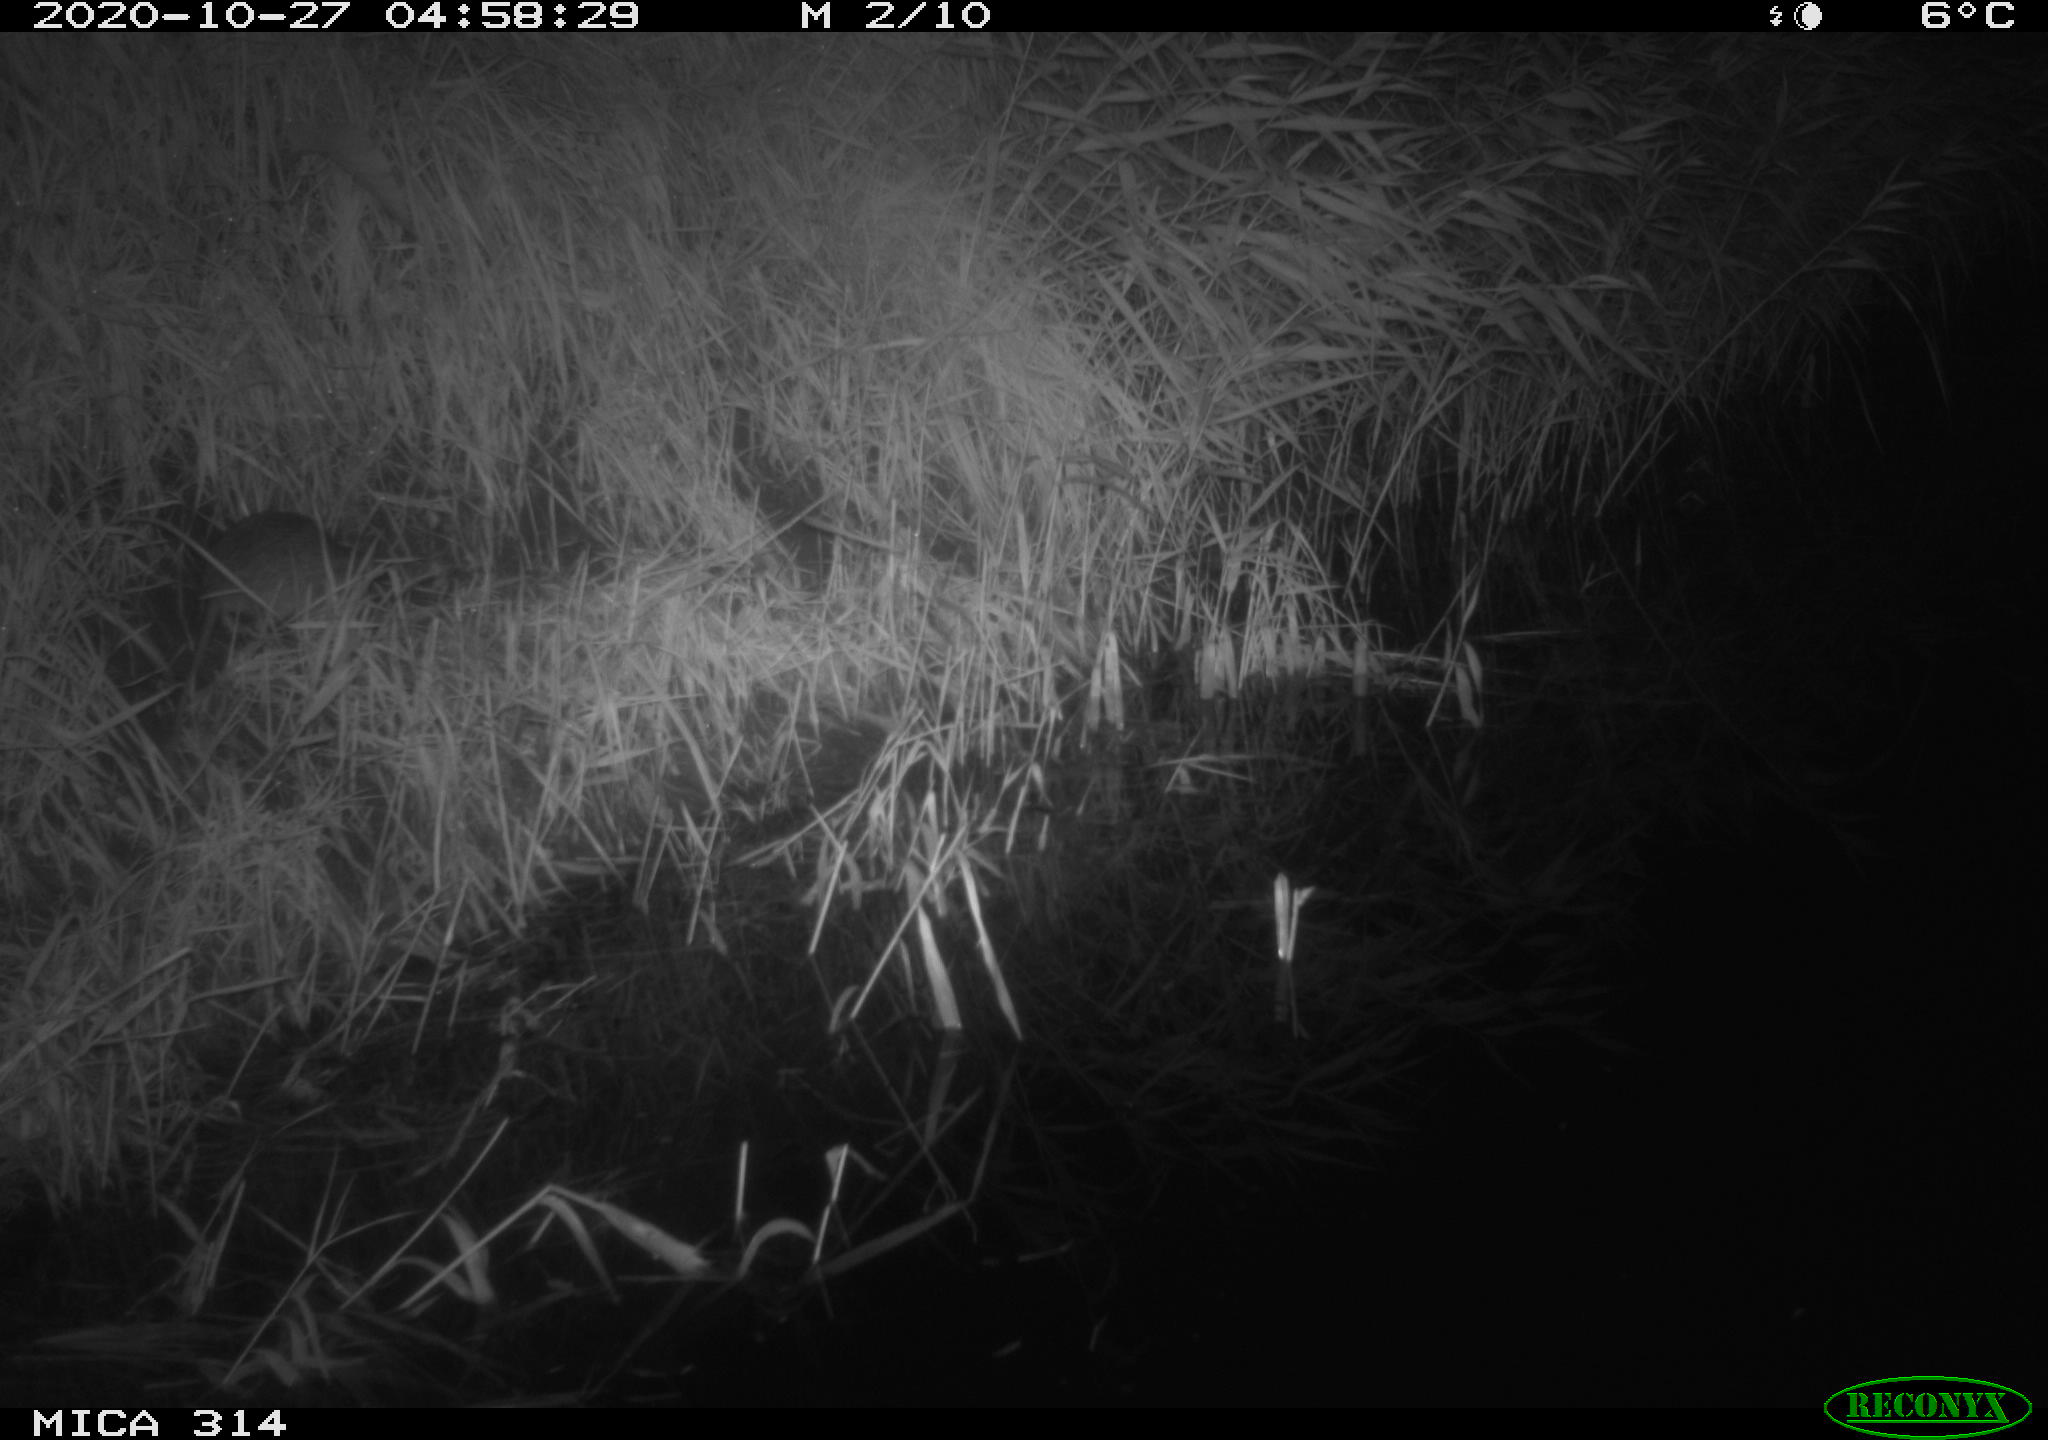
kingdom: Animalia
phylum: Chordata
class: Mammalia
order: Rodentia
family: Muridae
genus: Rattus
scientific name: Rattus norvegicus
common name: Brown rat
